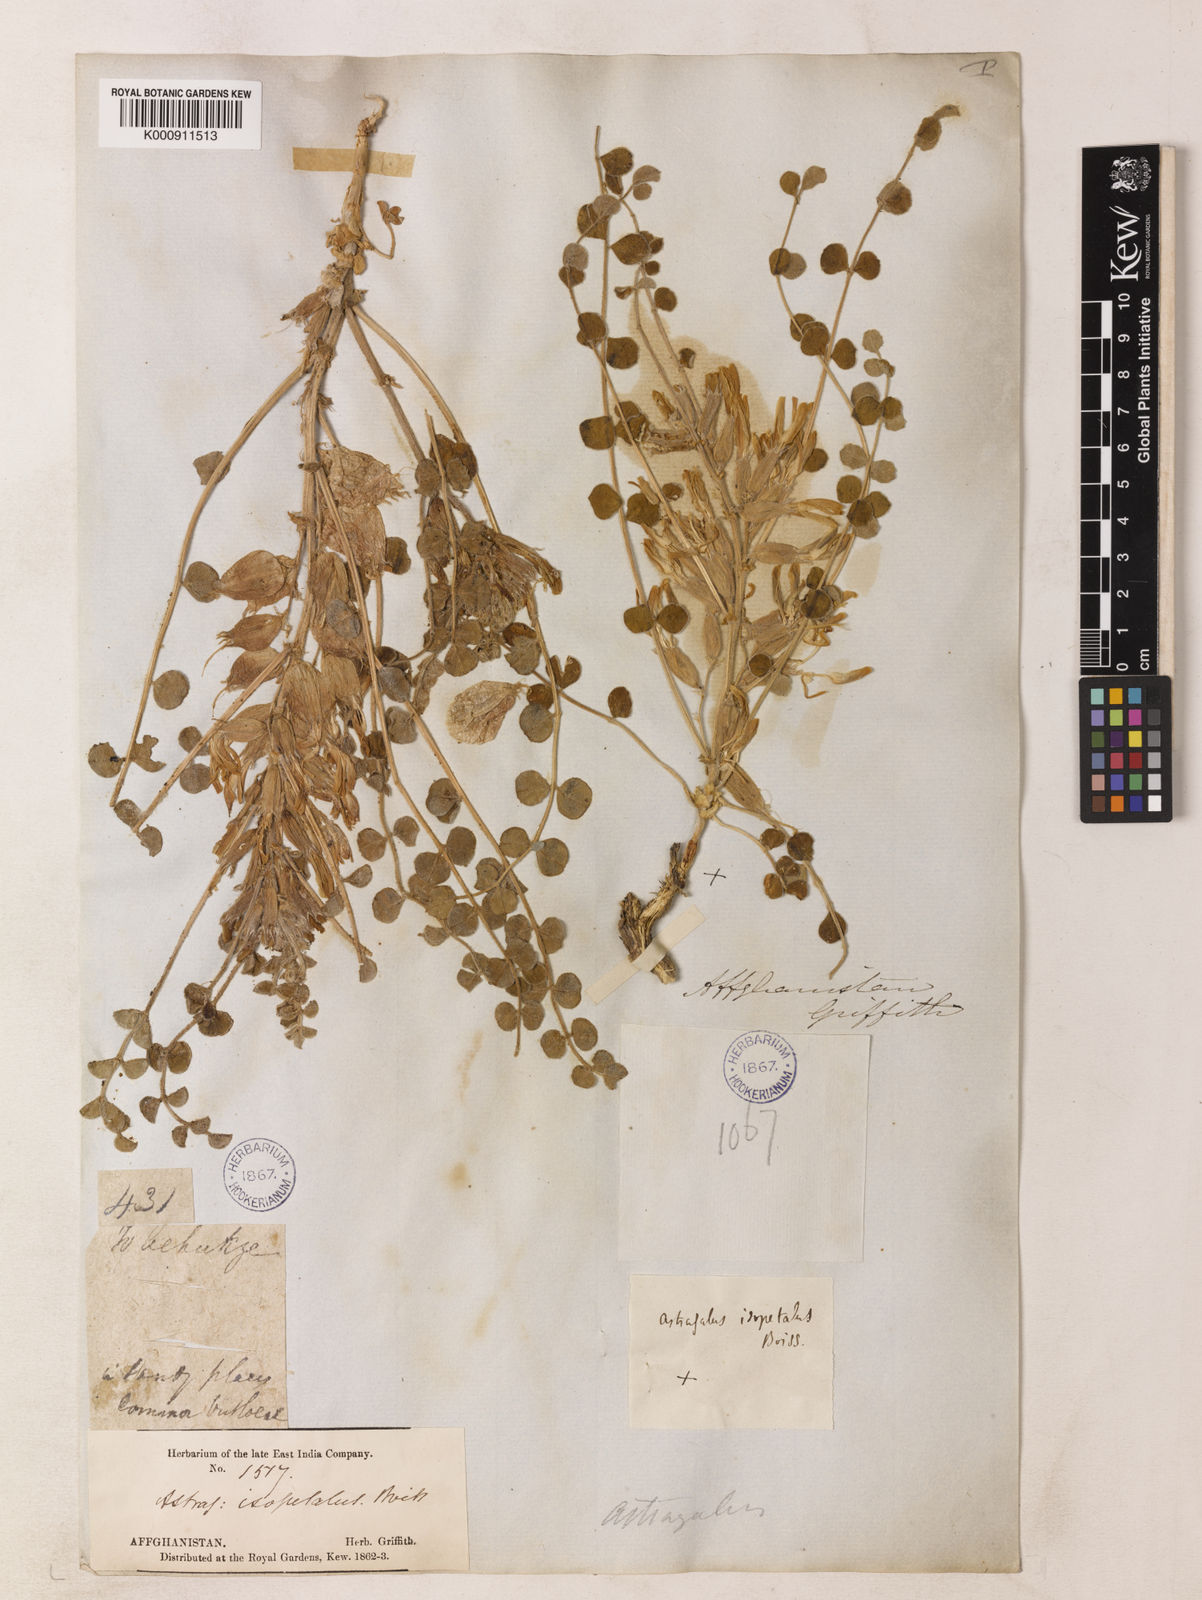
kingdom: Plantae
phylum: Tracheophyta
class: Magnoliopsida
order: Fabales
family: Fabaceae
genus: Astragalus
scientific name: Astragalus kahiricus
